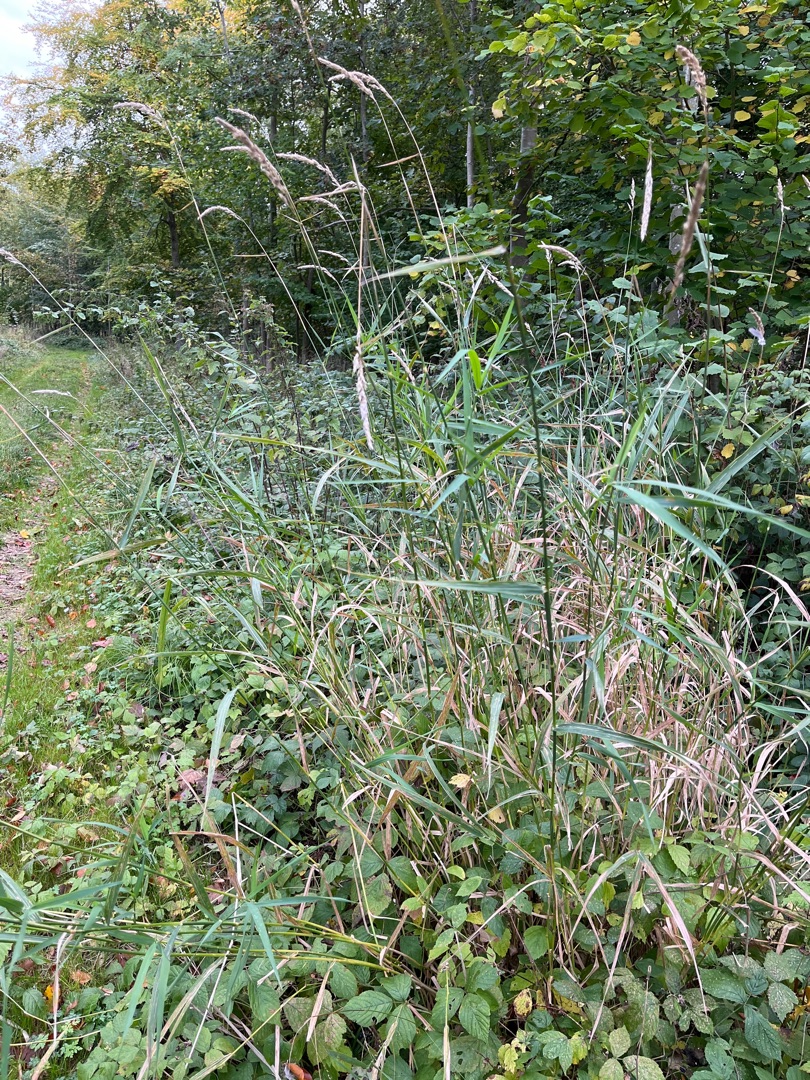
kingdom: Plantae
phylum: Tracheophyta
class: Liliopsida
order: Poales
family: Poaceae
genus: Phalaris
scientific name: Phalaris arundinacea
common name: Rørgræs
